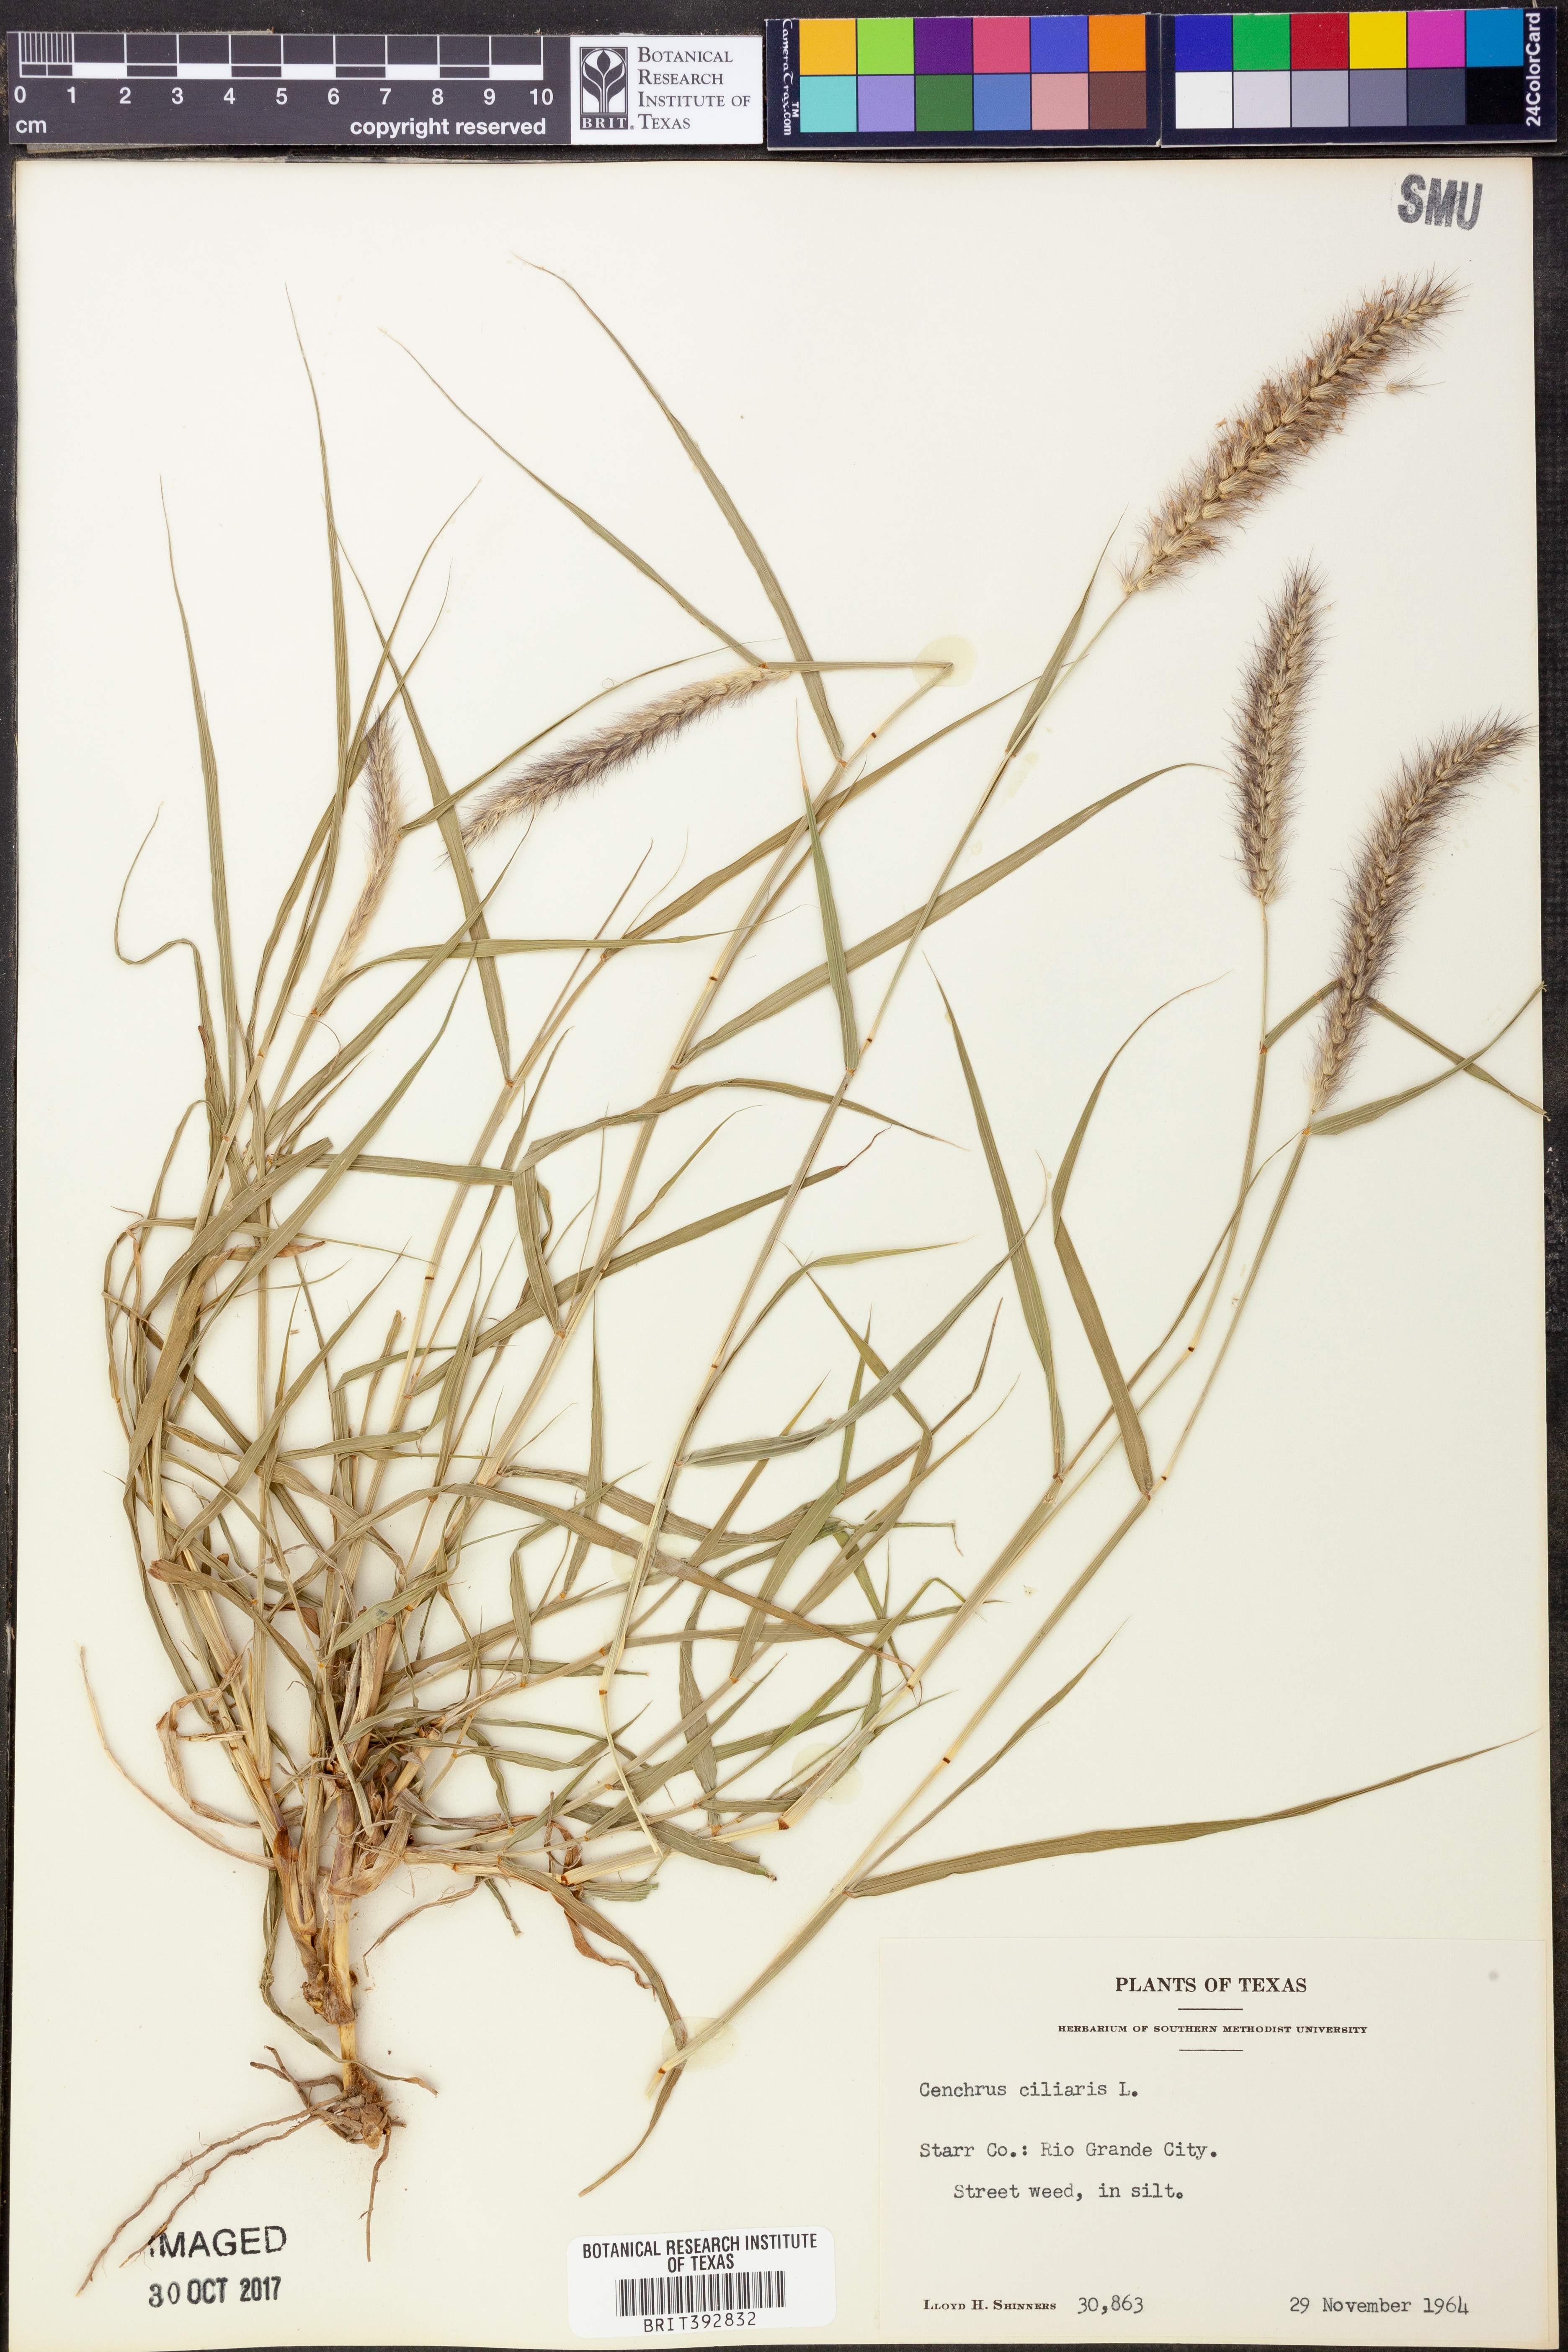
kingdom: Plantae
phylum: Tracheophyta
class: Liliopsida
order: Poales
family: Poaceae
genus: Cenchrus
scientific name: Cenchrus ciliaris
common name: Buffelgrass
